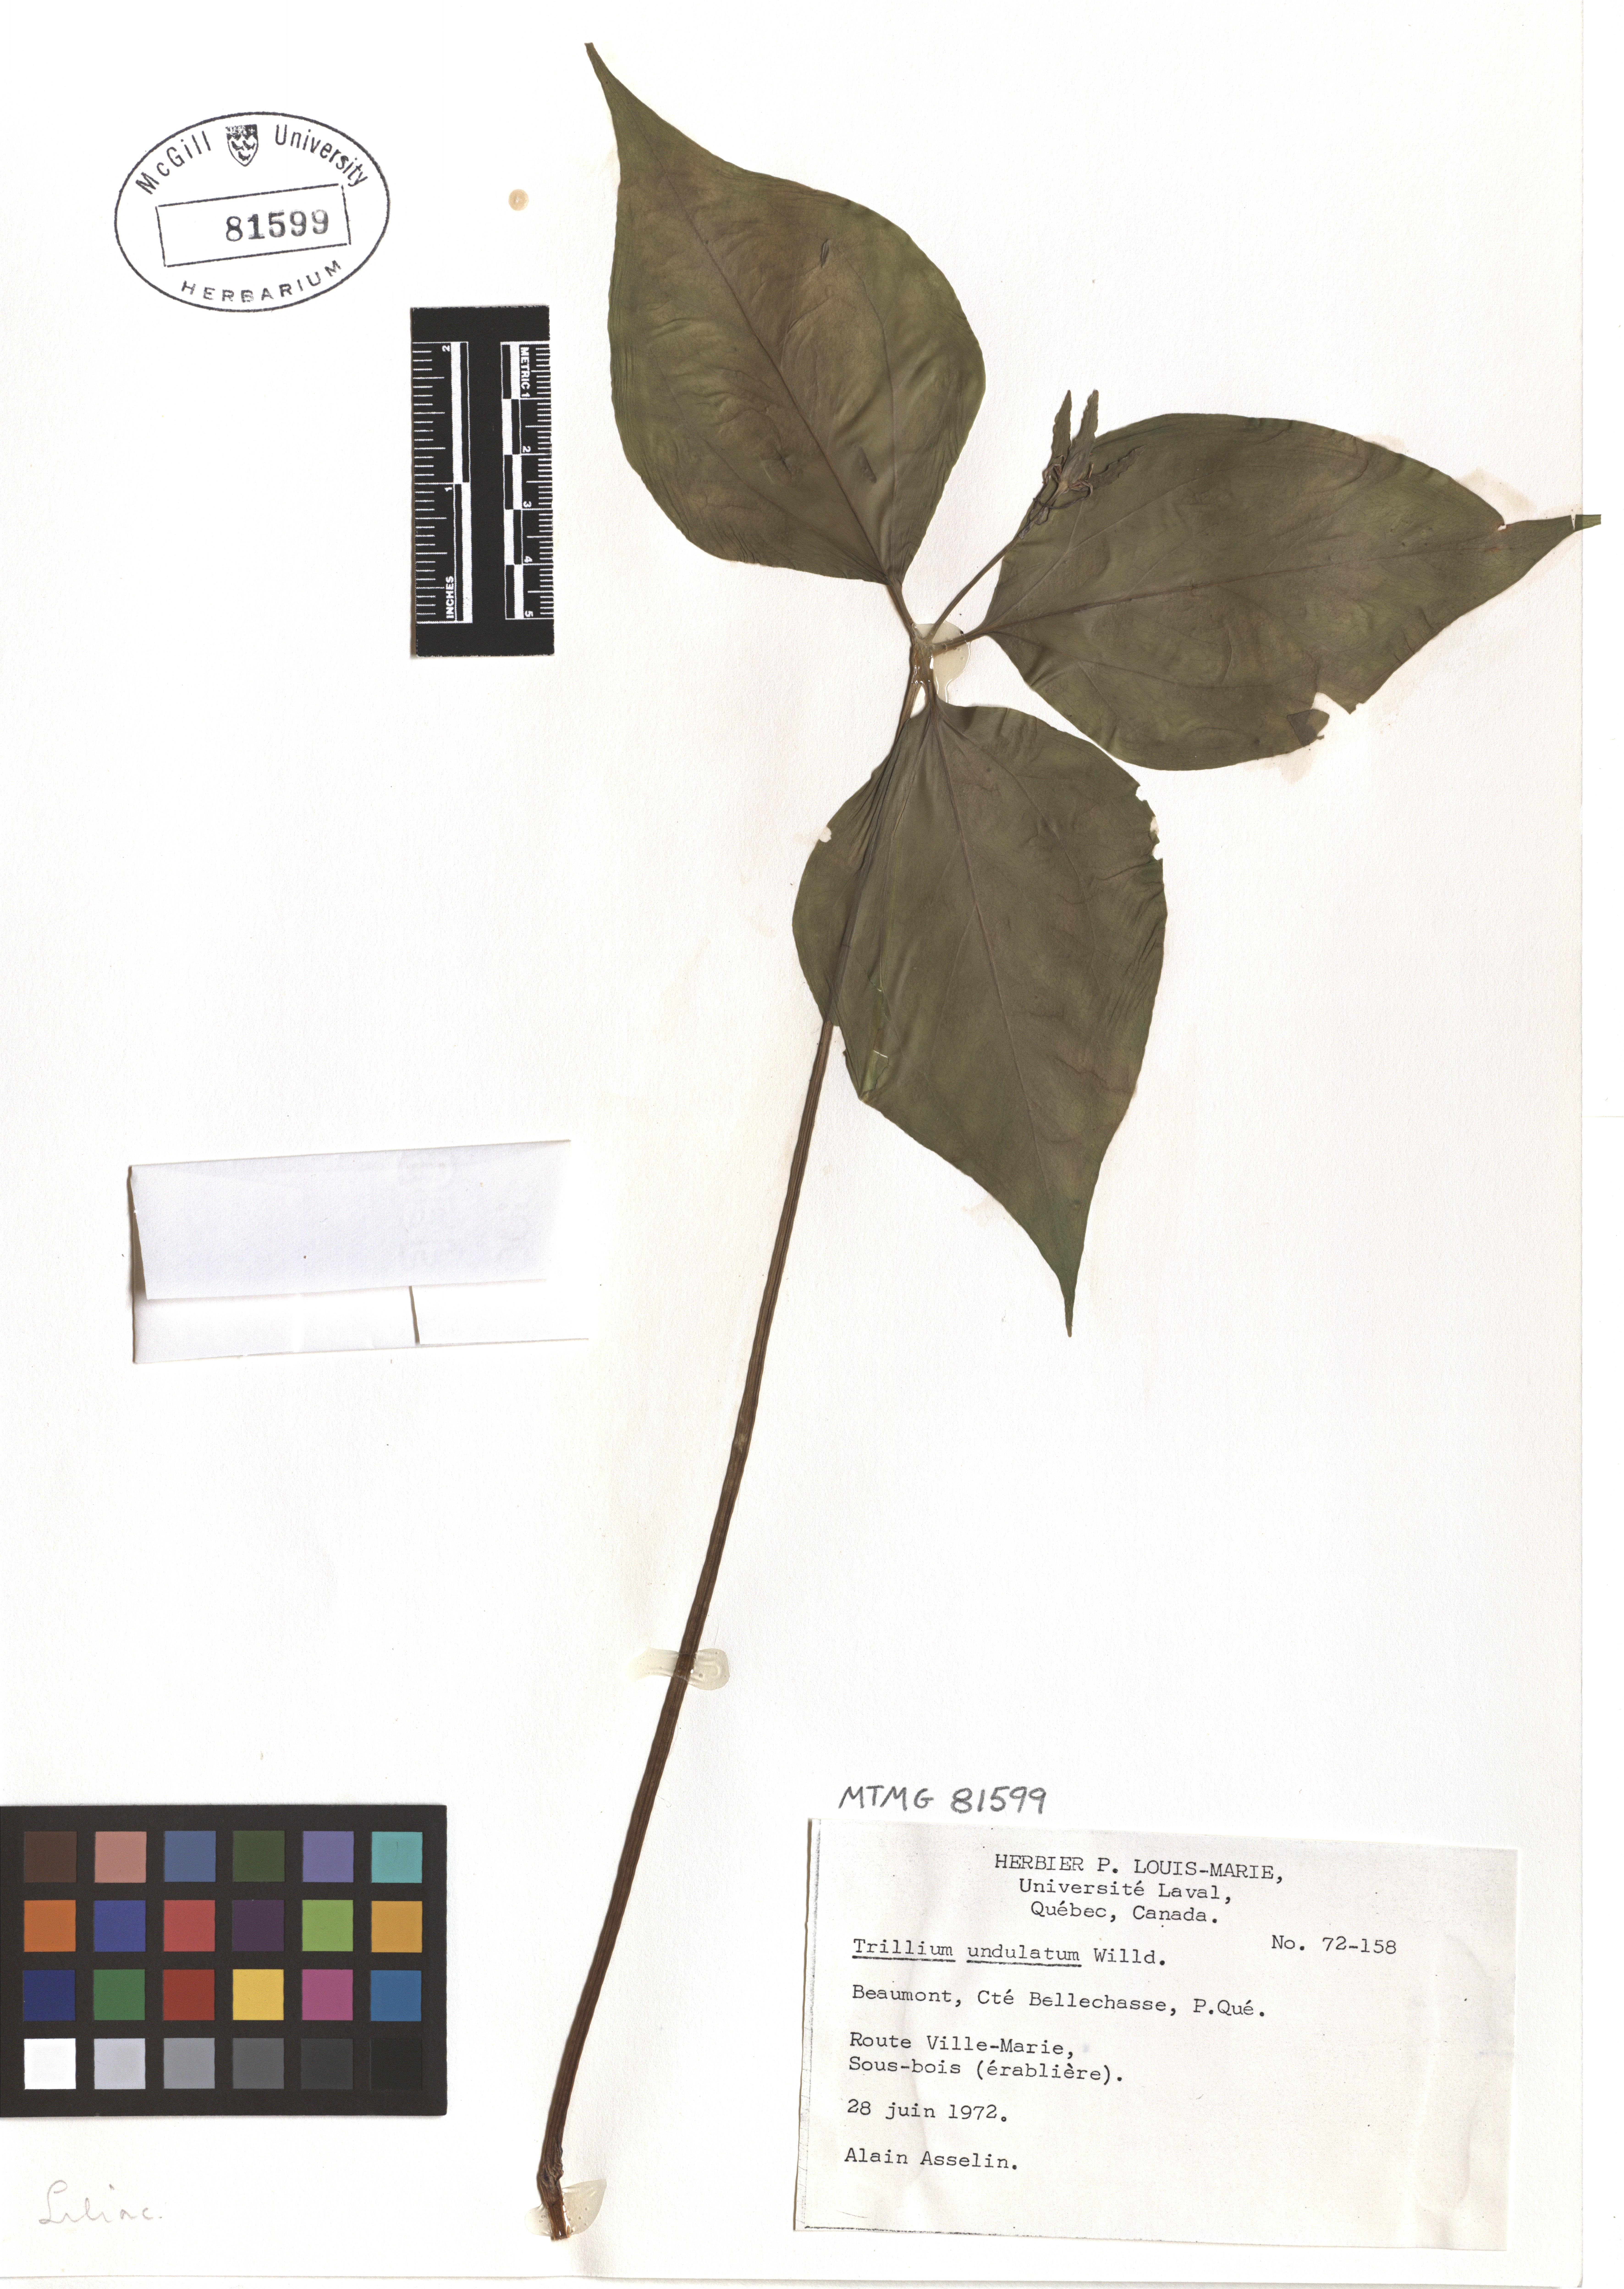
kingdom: Plantae
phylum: Tracheophyta
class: Liliopsida
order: Liliales
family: Melanthiaceae
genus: Trillium
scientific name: Trillium undulatum
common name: Paint trillium
